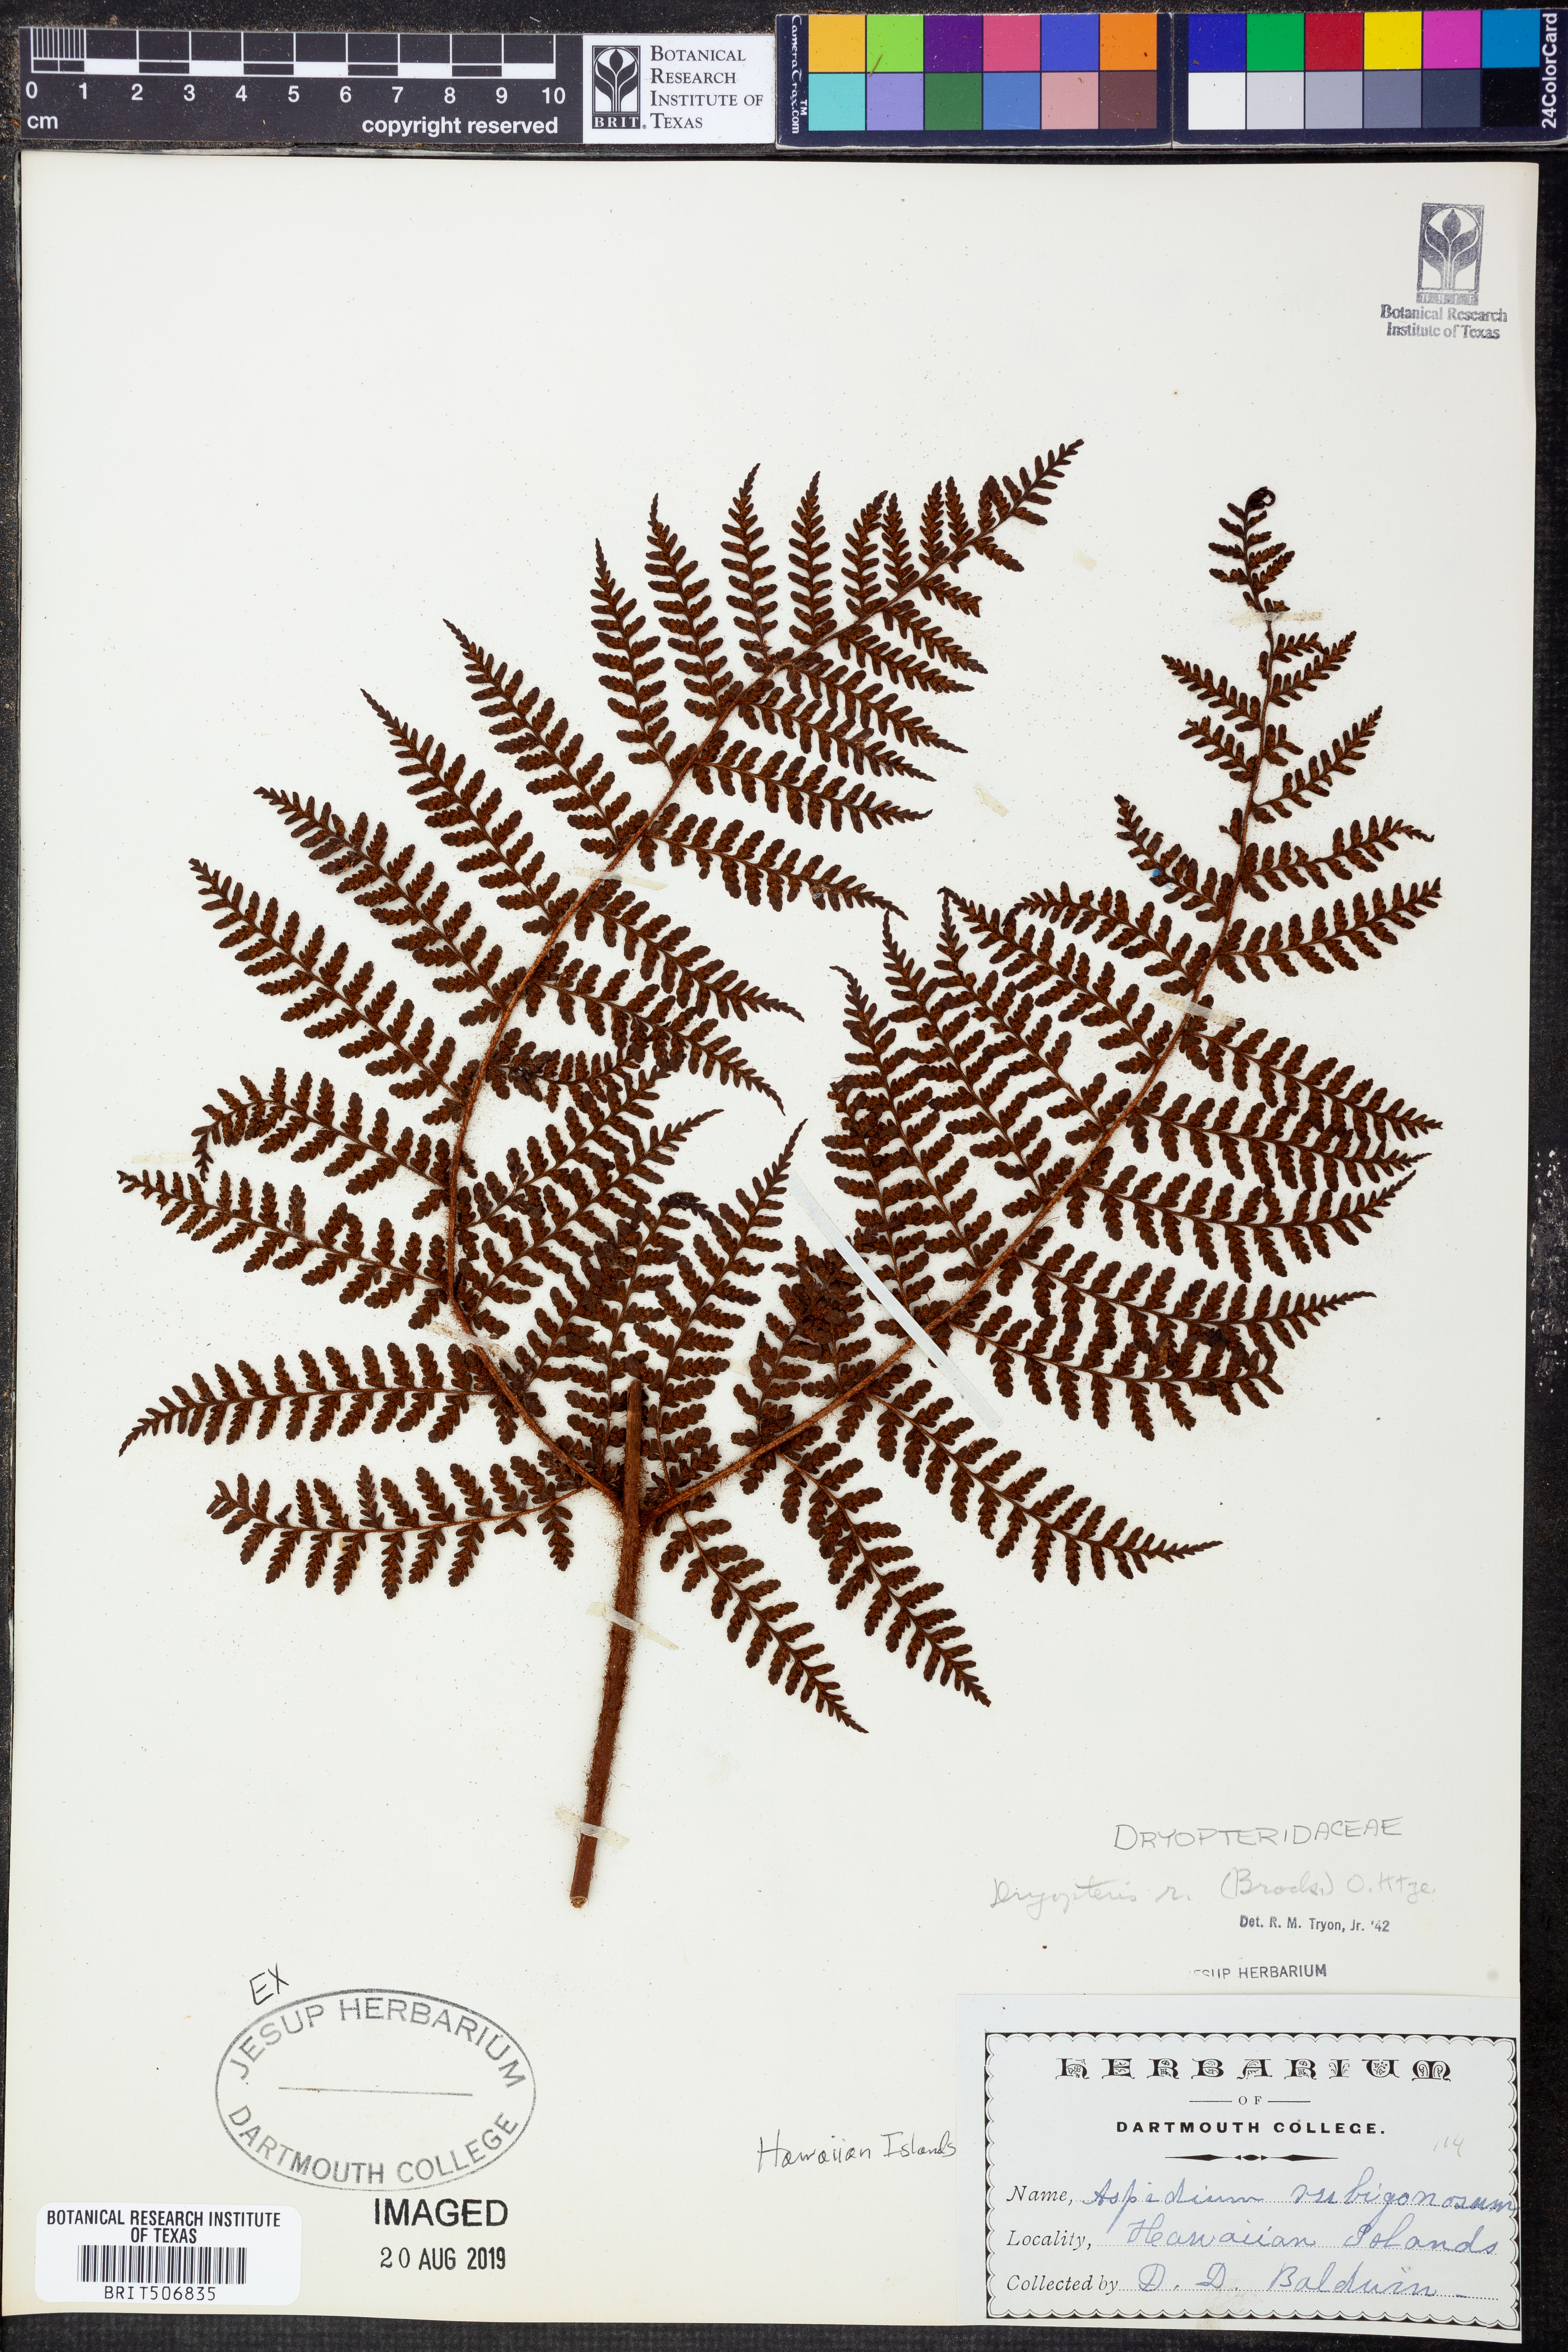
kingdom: Plantae
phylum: Tracheophyta
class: Polypodiopsida
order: Polypodiales
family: Dryopteridaceae
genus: Dryopteris
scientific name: Dryopteris rubiginosa
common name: Island lacefern
